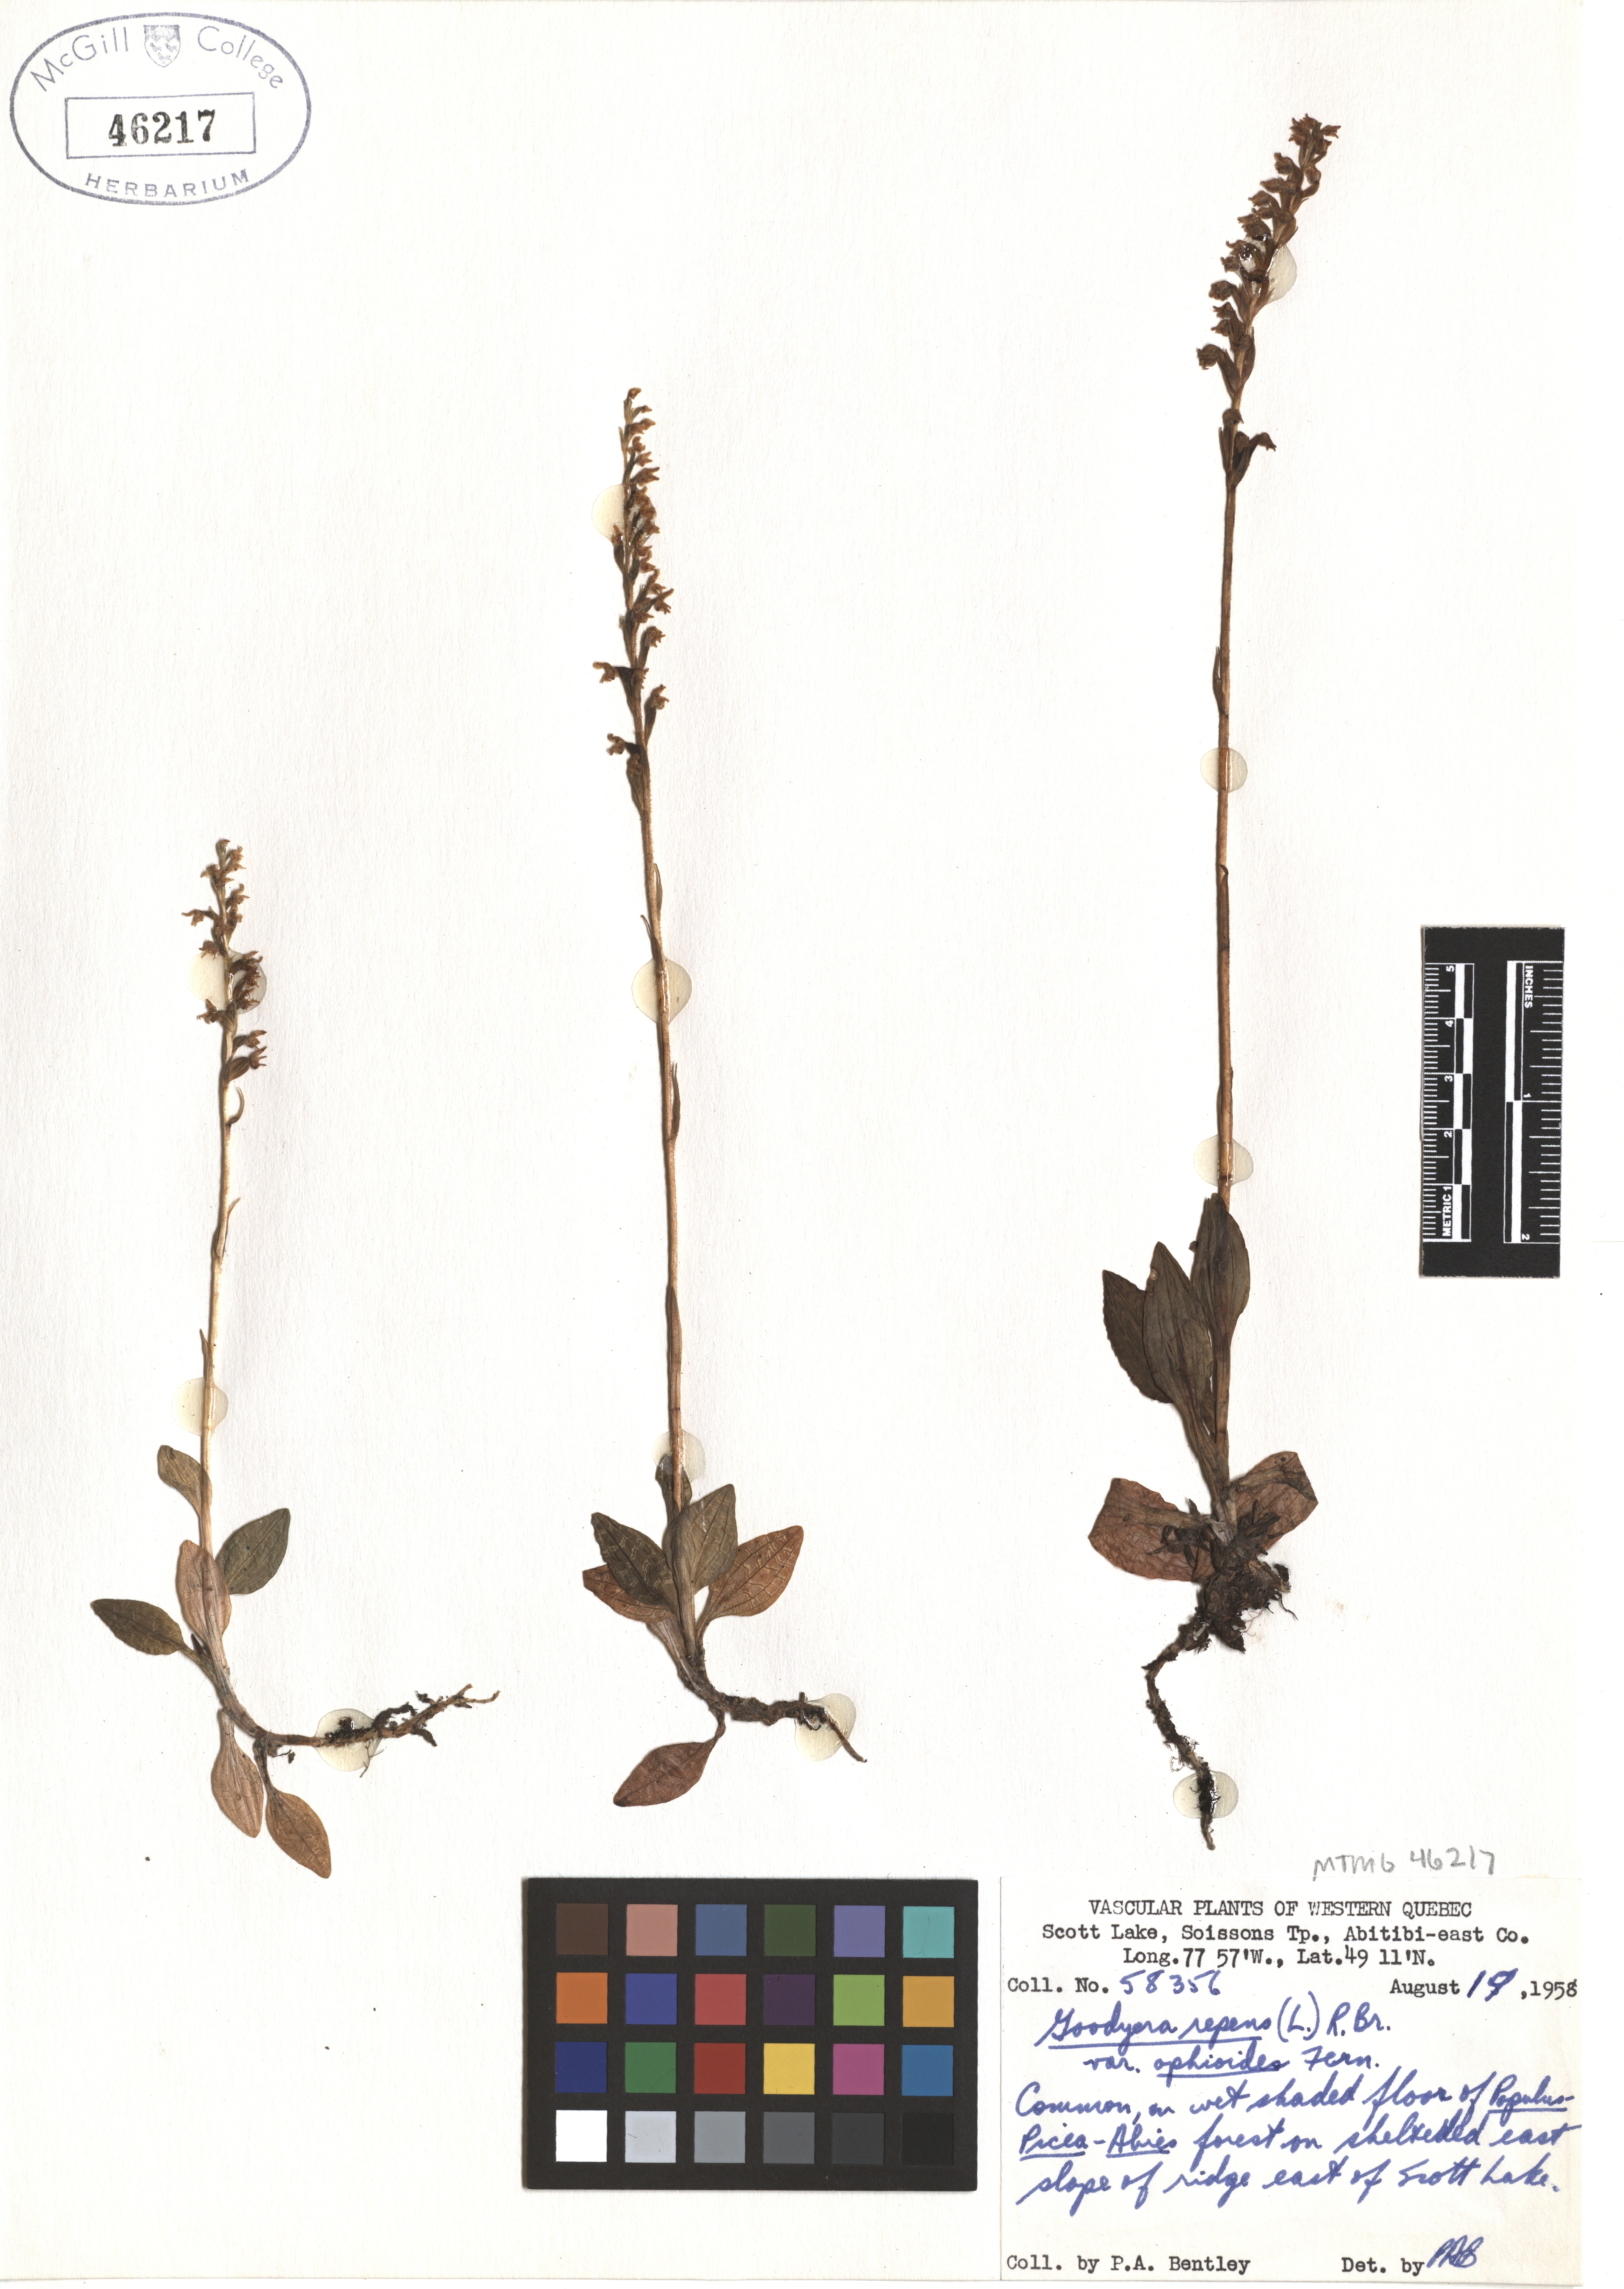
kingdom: Plantae
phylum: Tracheophyta
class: Liliopsida
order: Asparagales
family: Orchidaceae
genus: Goodyera
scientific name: Goodyera repens
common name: Creeping lady's-tresses
